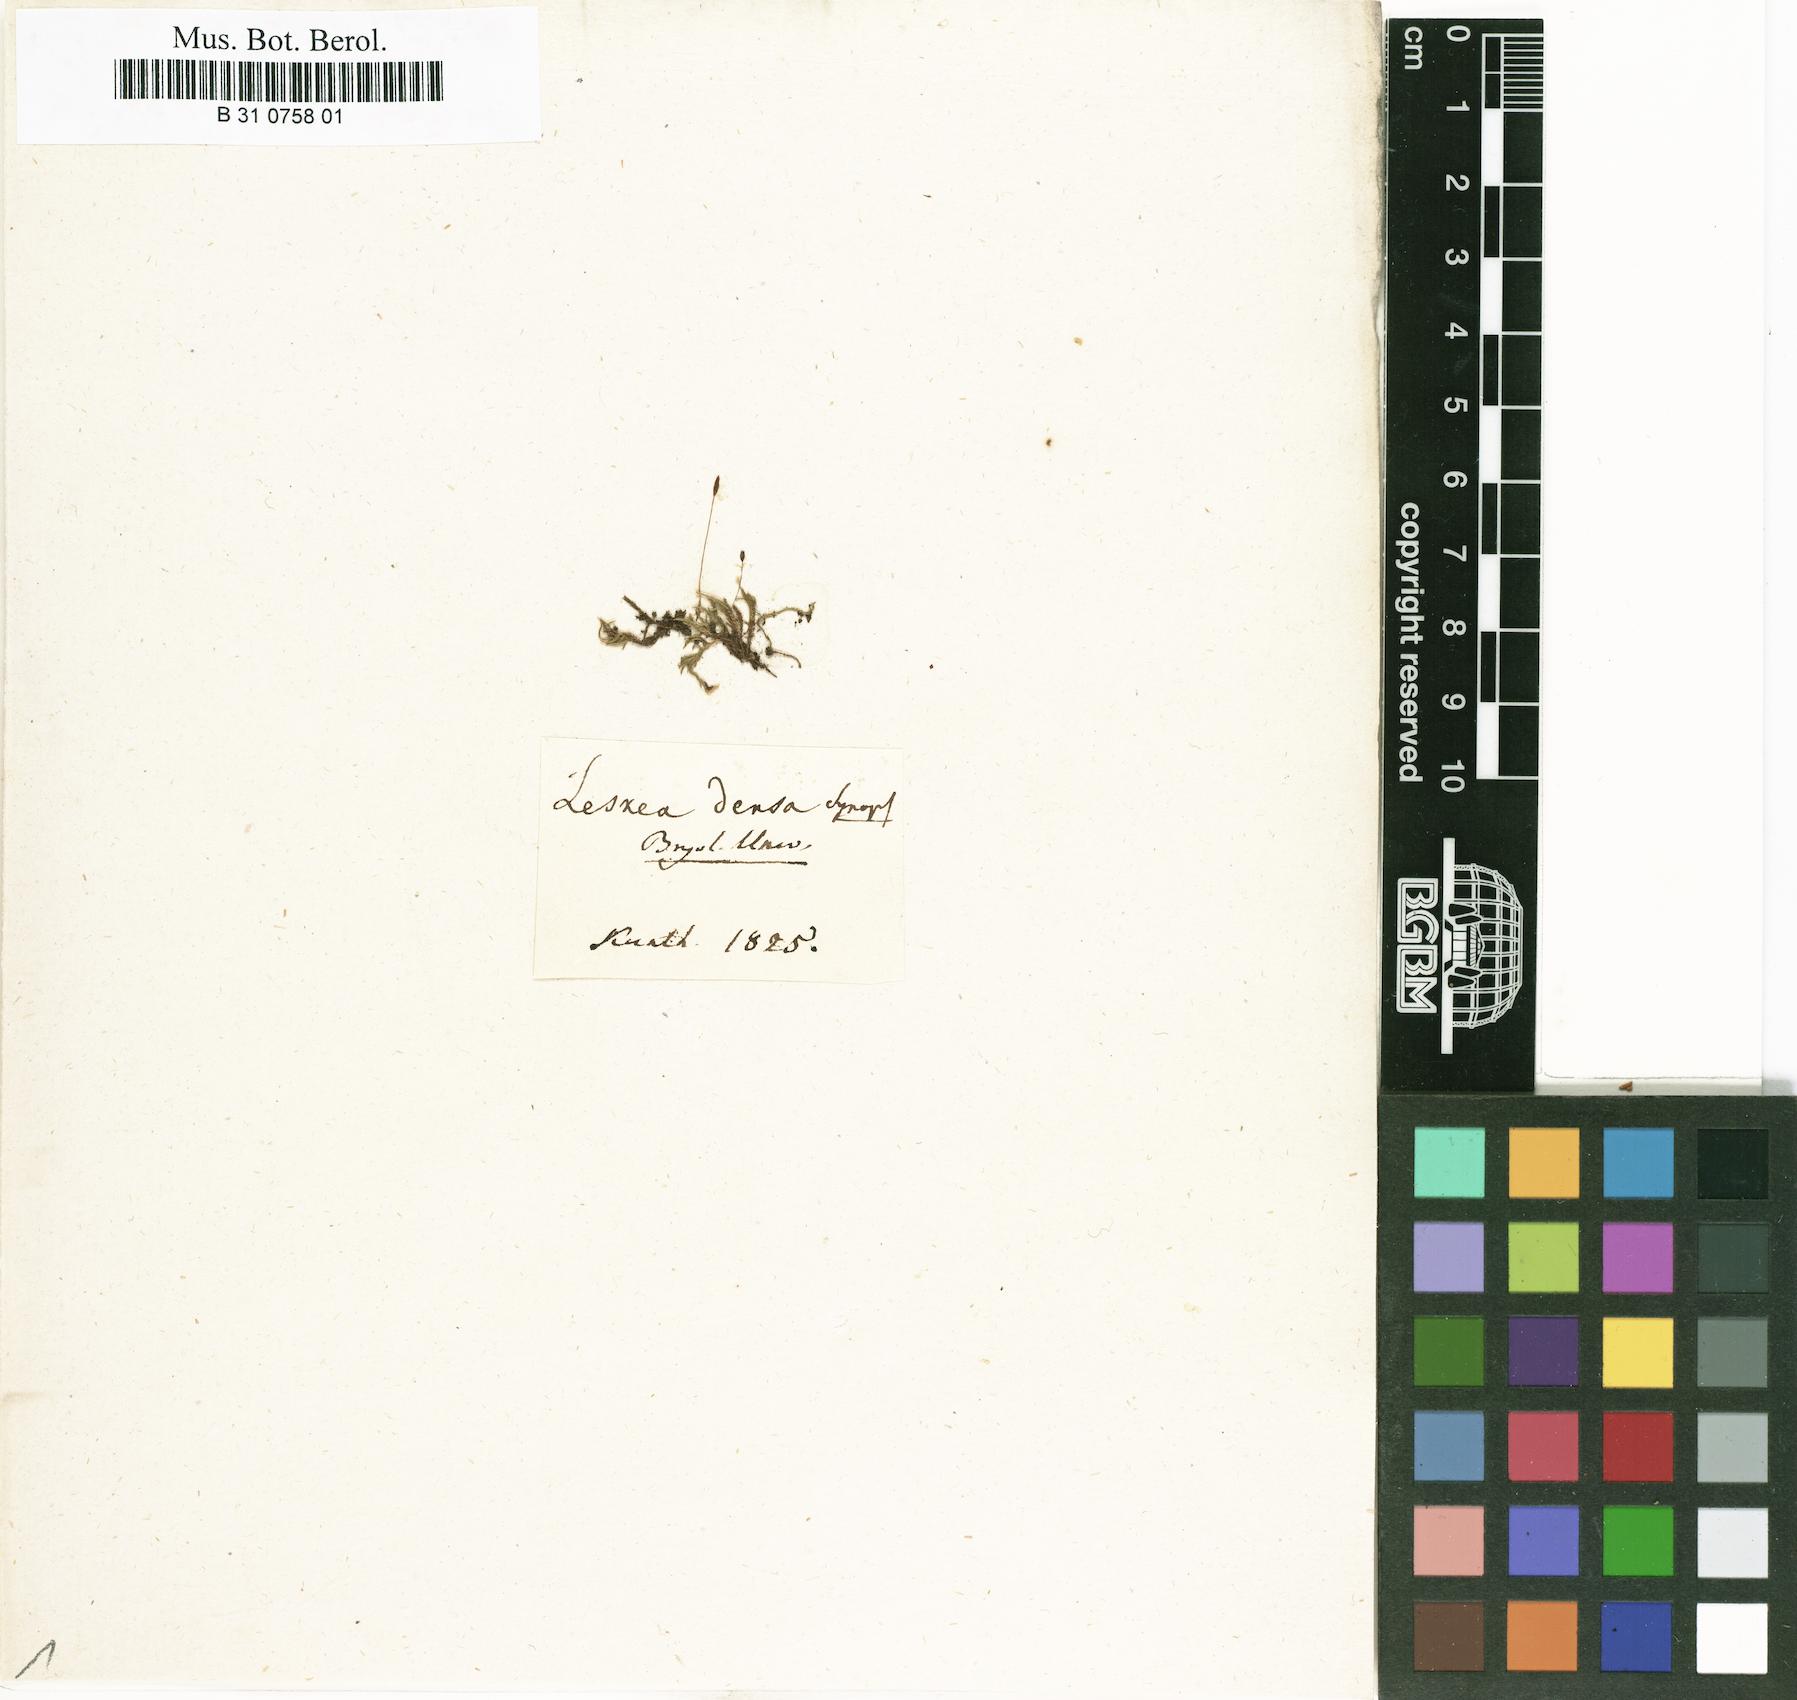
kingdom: Plantae
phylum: Bryophyta
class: Bryopsida
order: Hypnales
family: Hypnaceae
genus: Platygyriella
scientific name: Platygyriella densa
